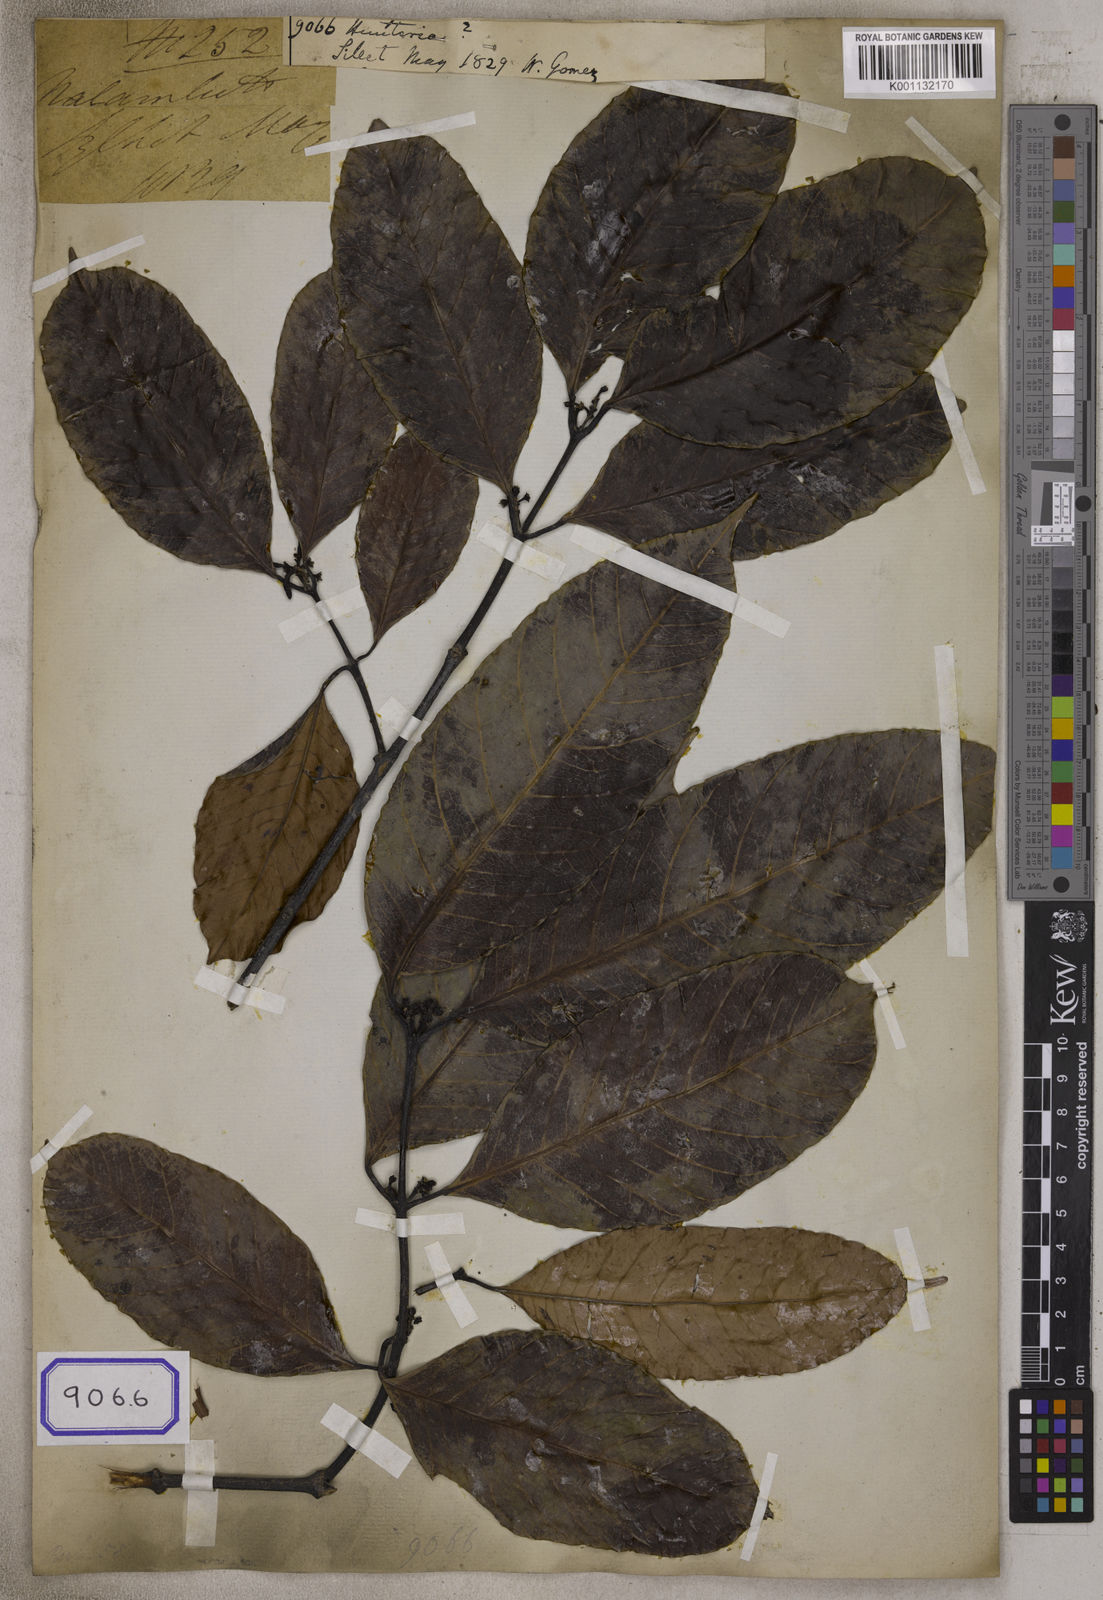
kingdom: Plantae
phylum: Tracheophyta
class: Magnoliopsida
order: Gentianales
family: Apocynaceae
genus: Hunteria
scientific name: Hunteria
